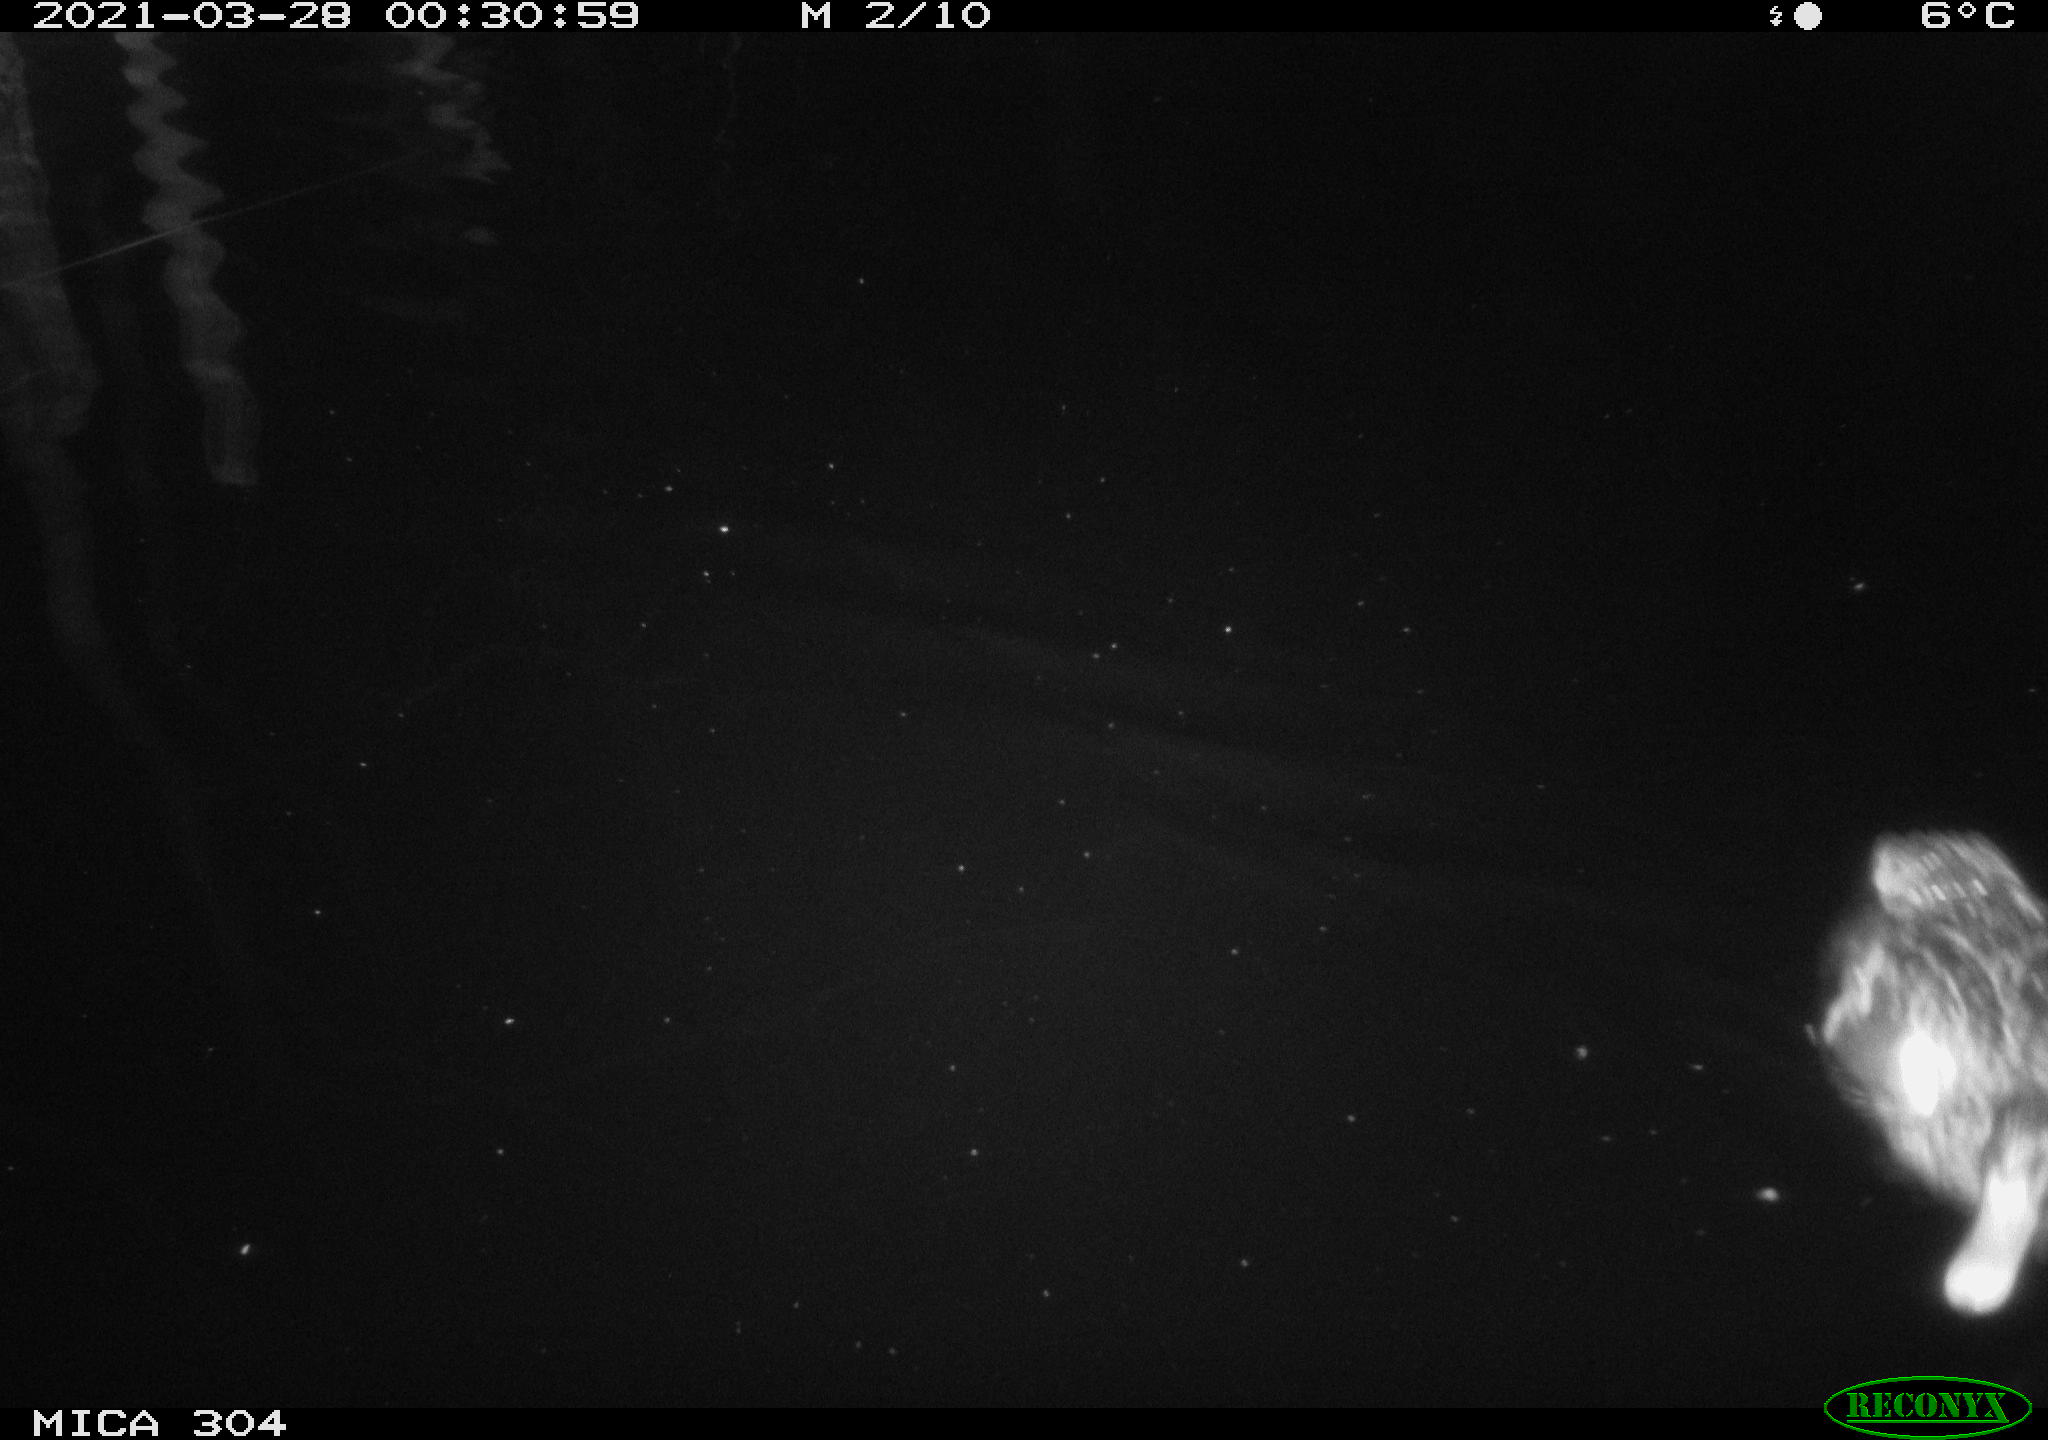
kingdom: Animalia
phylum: Chordata
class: Aves
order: Anseriformes
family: Anatidae
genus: Anas
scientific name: Anas platyrhynchos
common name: Mallard
